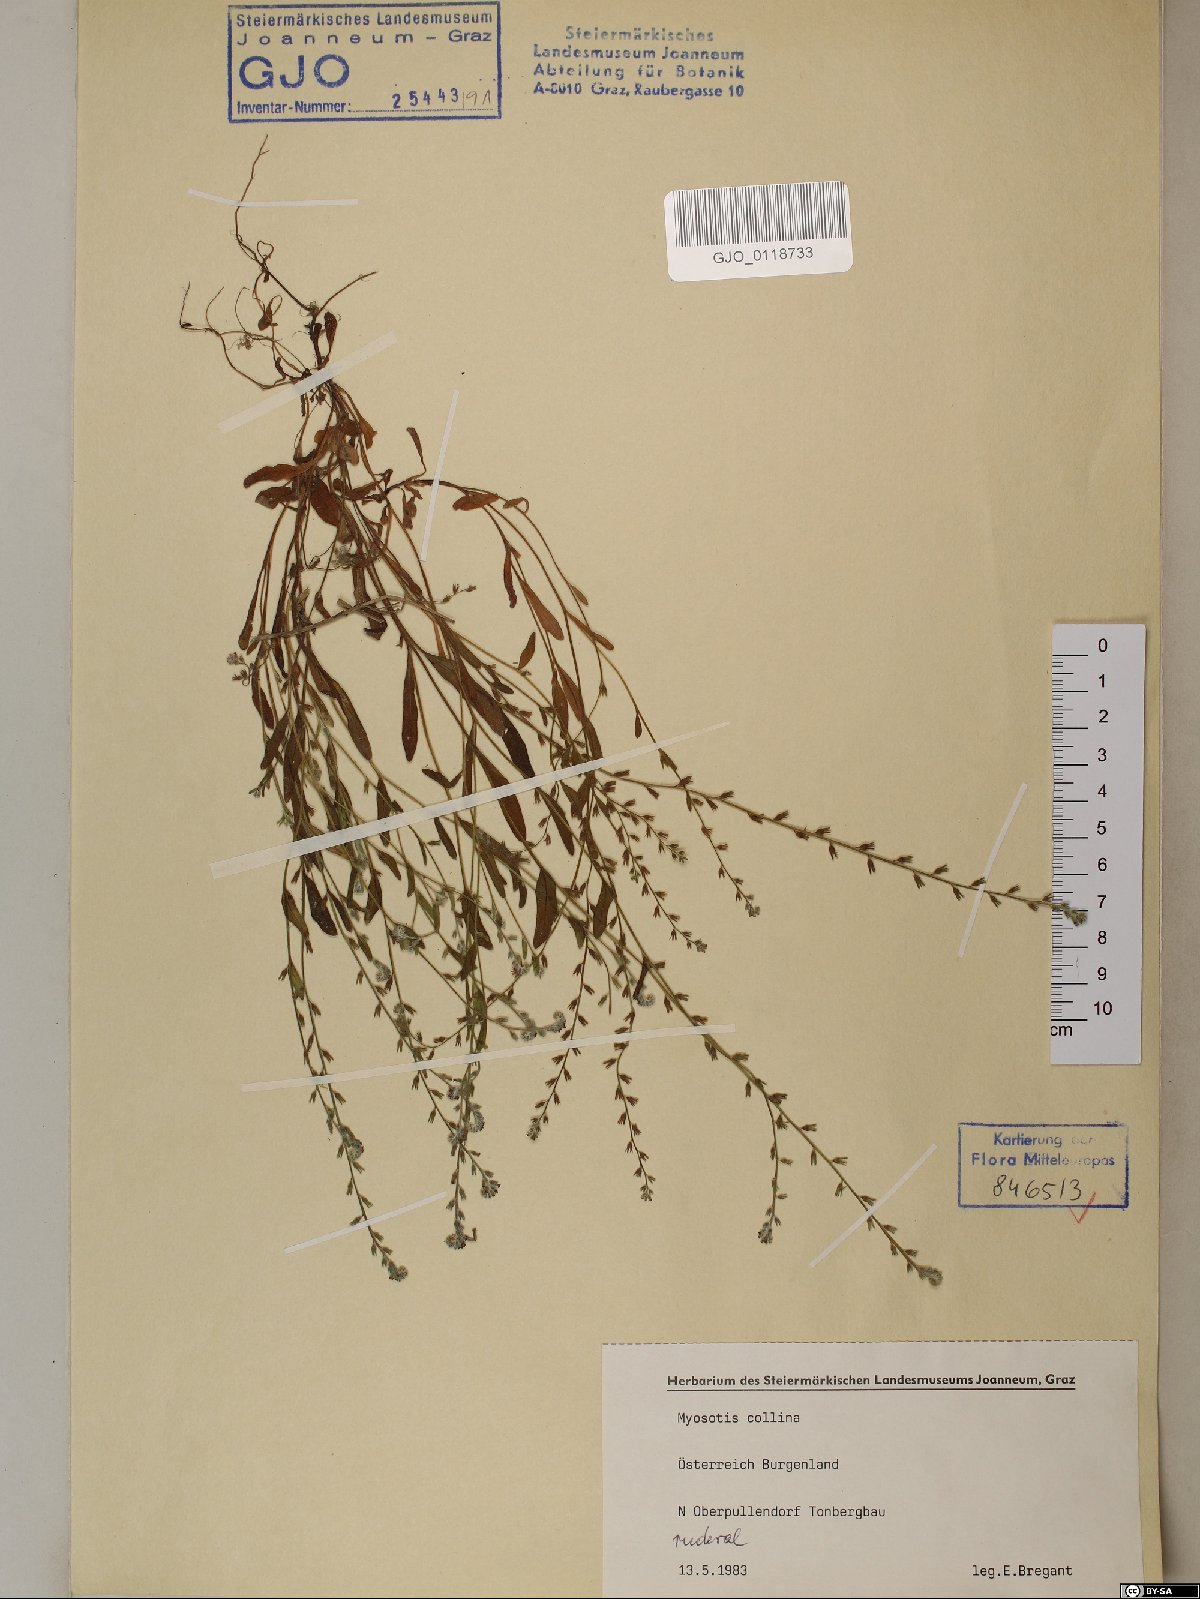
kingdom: Plantae
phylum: Tracheophyta
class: Magnoliopsida
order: Boraginales
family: Boraginaceae
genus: Myosotis
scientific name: Myosotis discolor
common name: Changing forget-me-not
